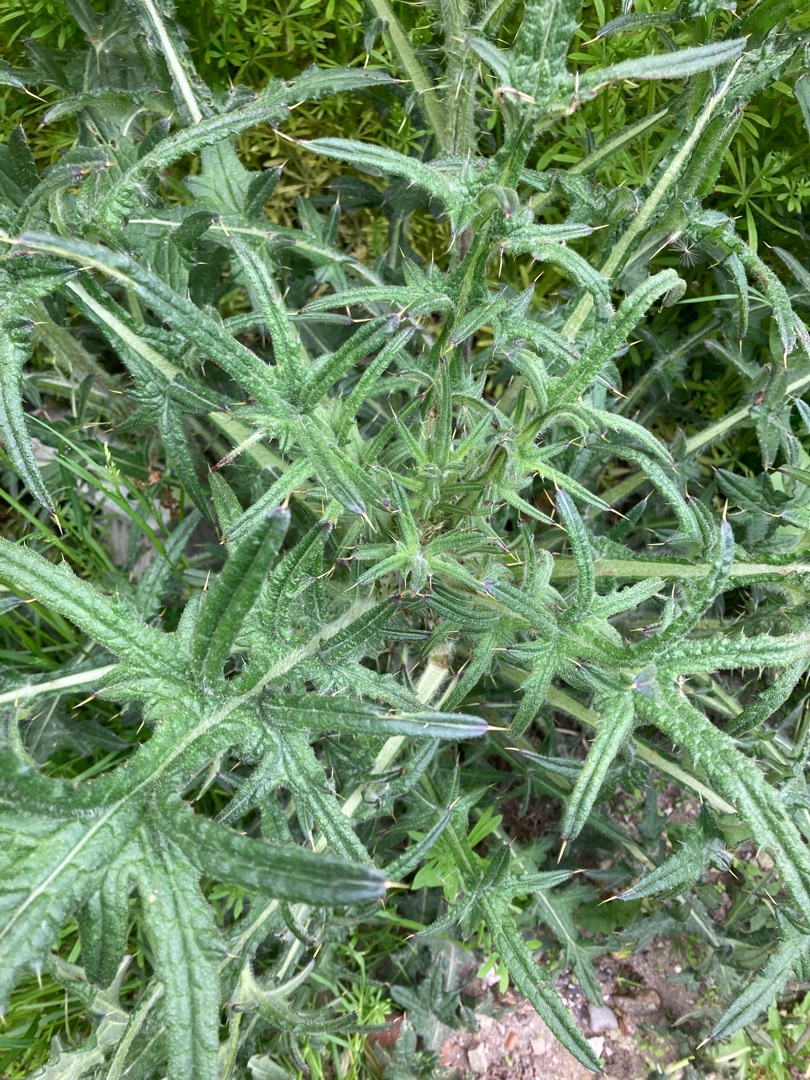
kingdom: Plantae
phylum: Tracheophyta
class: Magnoliopsida
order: Asterales
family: Asteraceae
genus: Cirsium
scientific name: Cirsium vulgare
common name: Horse-tidsel
